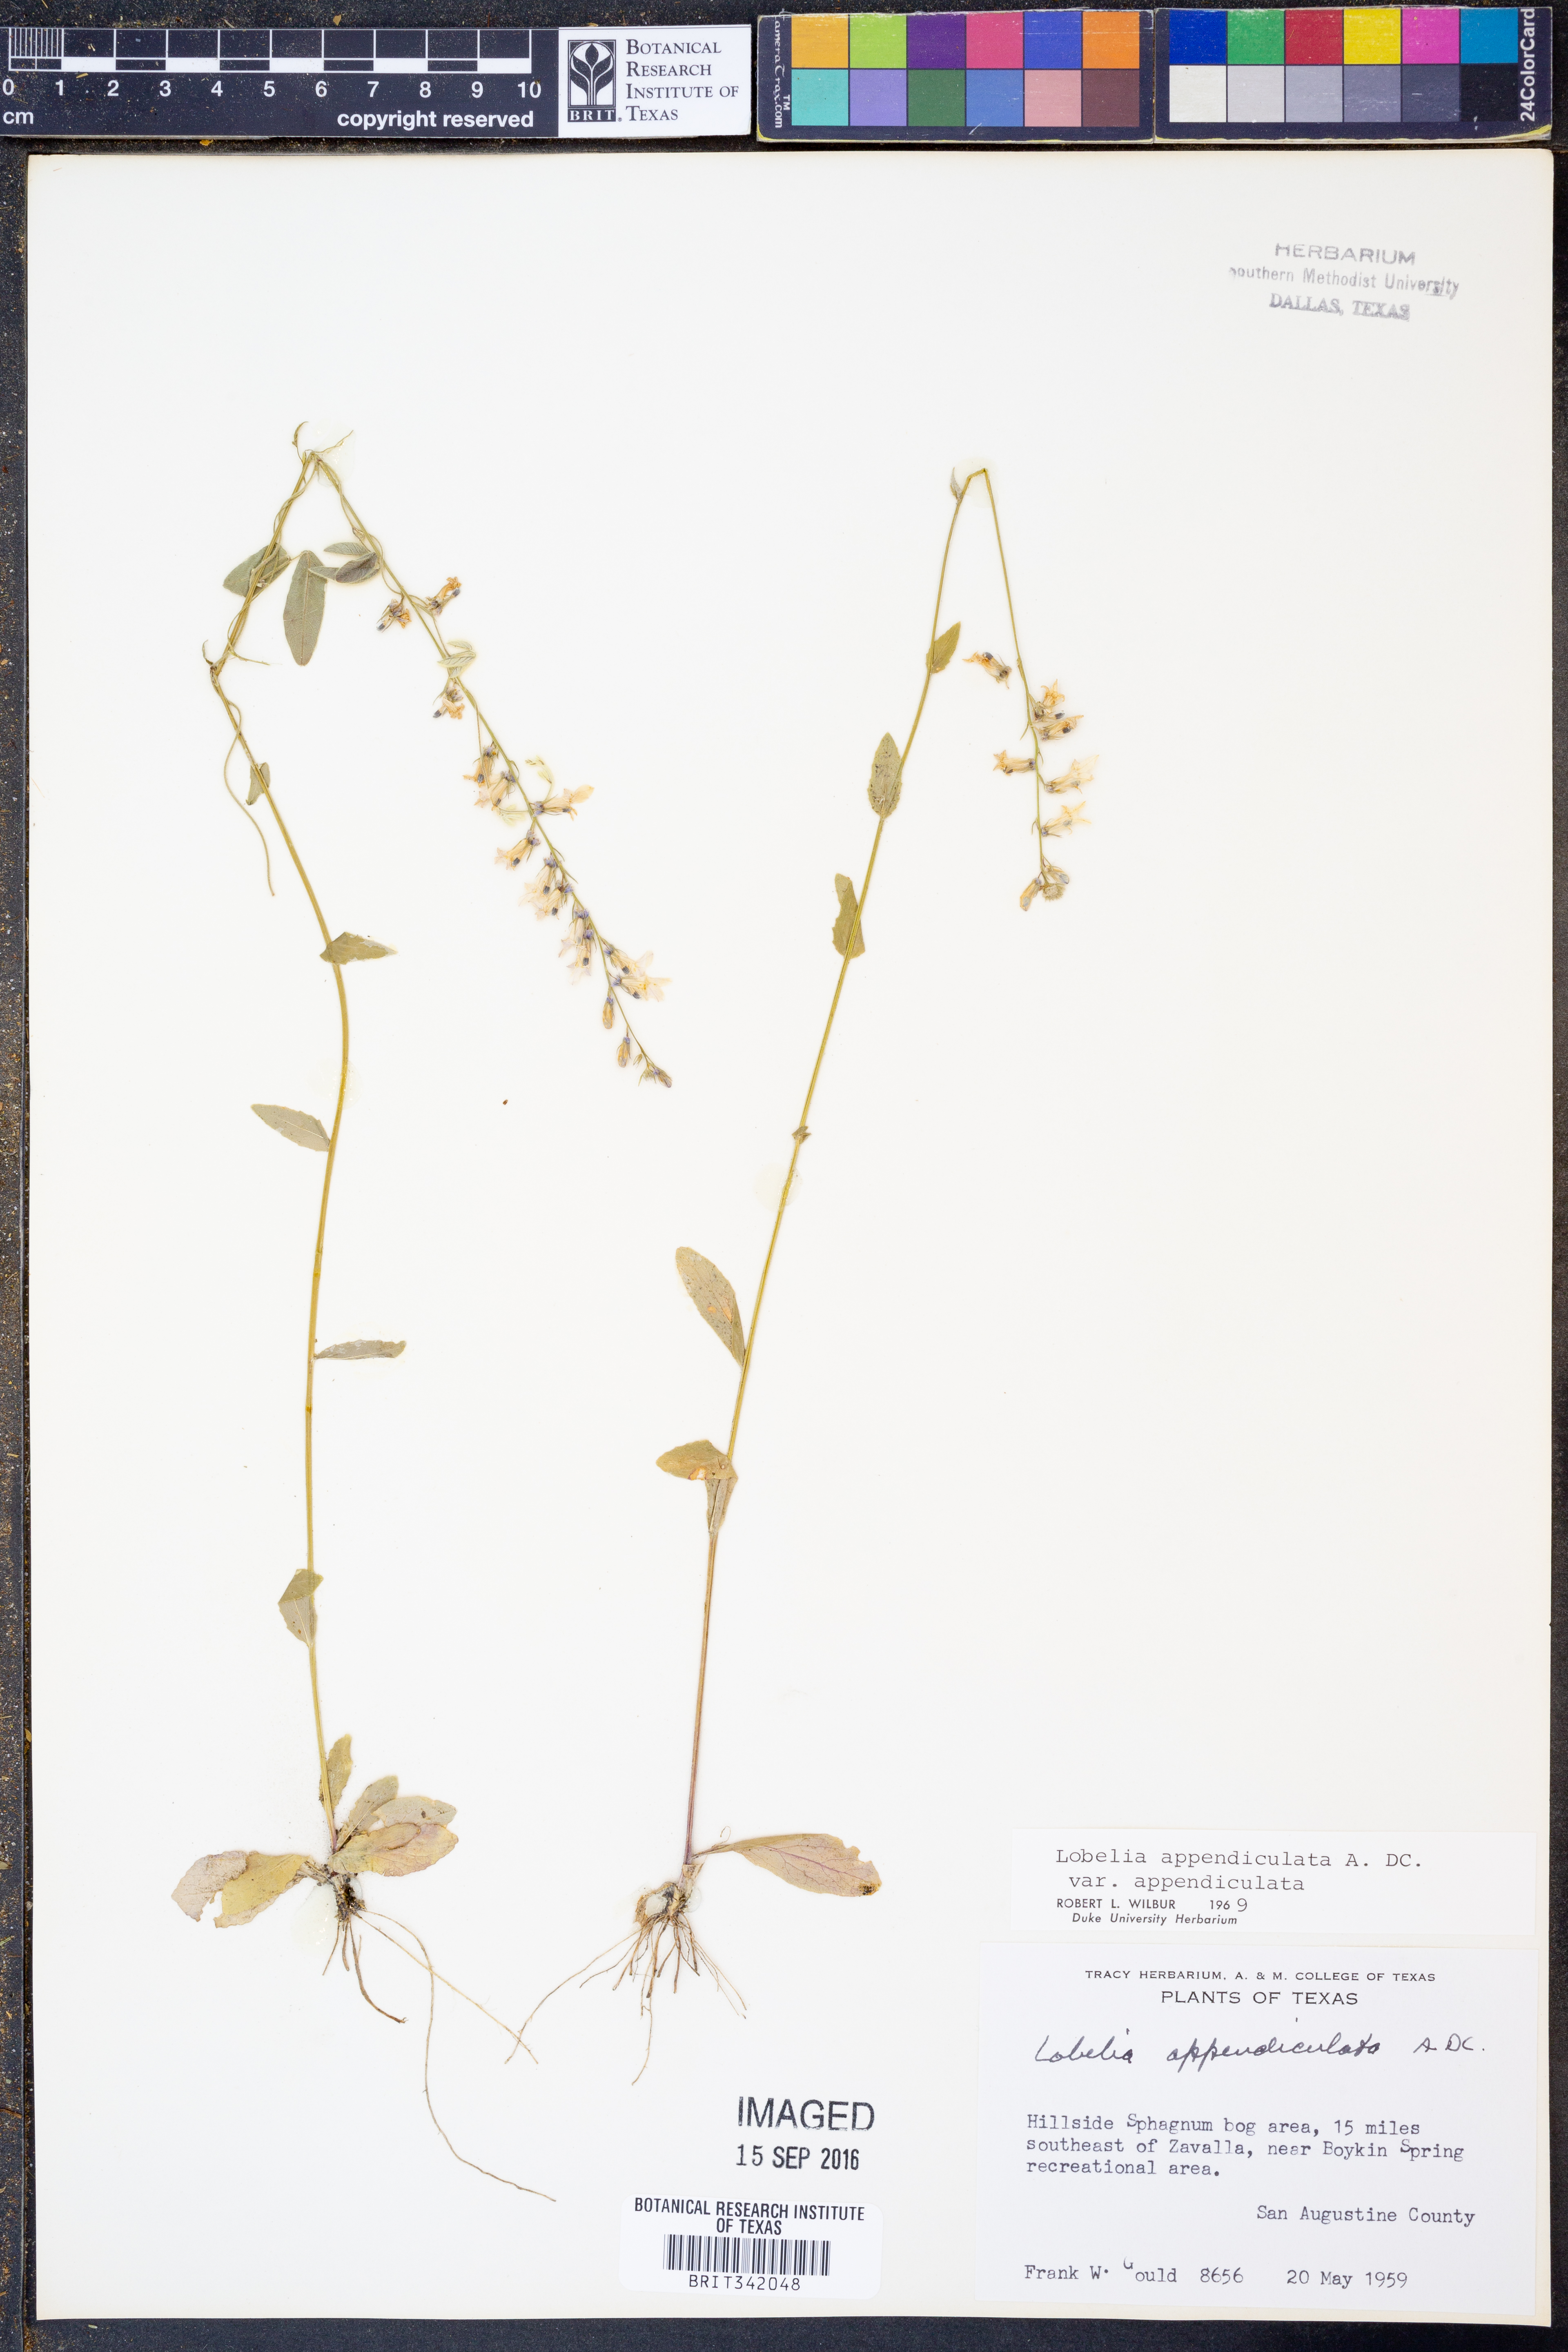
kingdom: Plantae
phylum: Tracheophyta
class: Magnoliopsida
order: Asterales
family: Campanulaceae
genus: Lobelia
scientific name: Lobelia appendiculata
